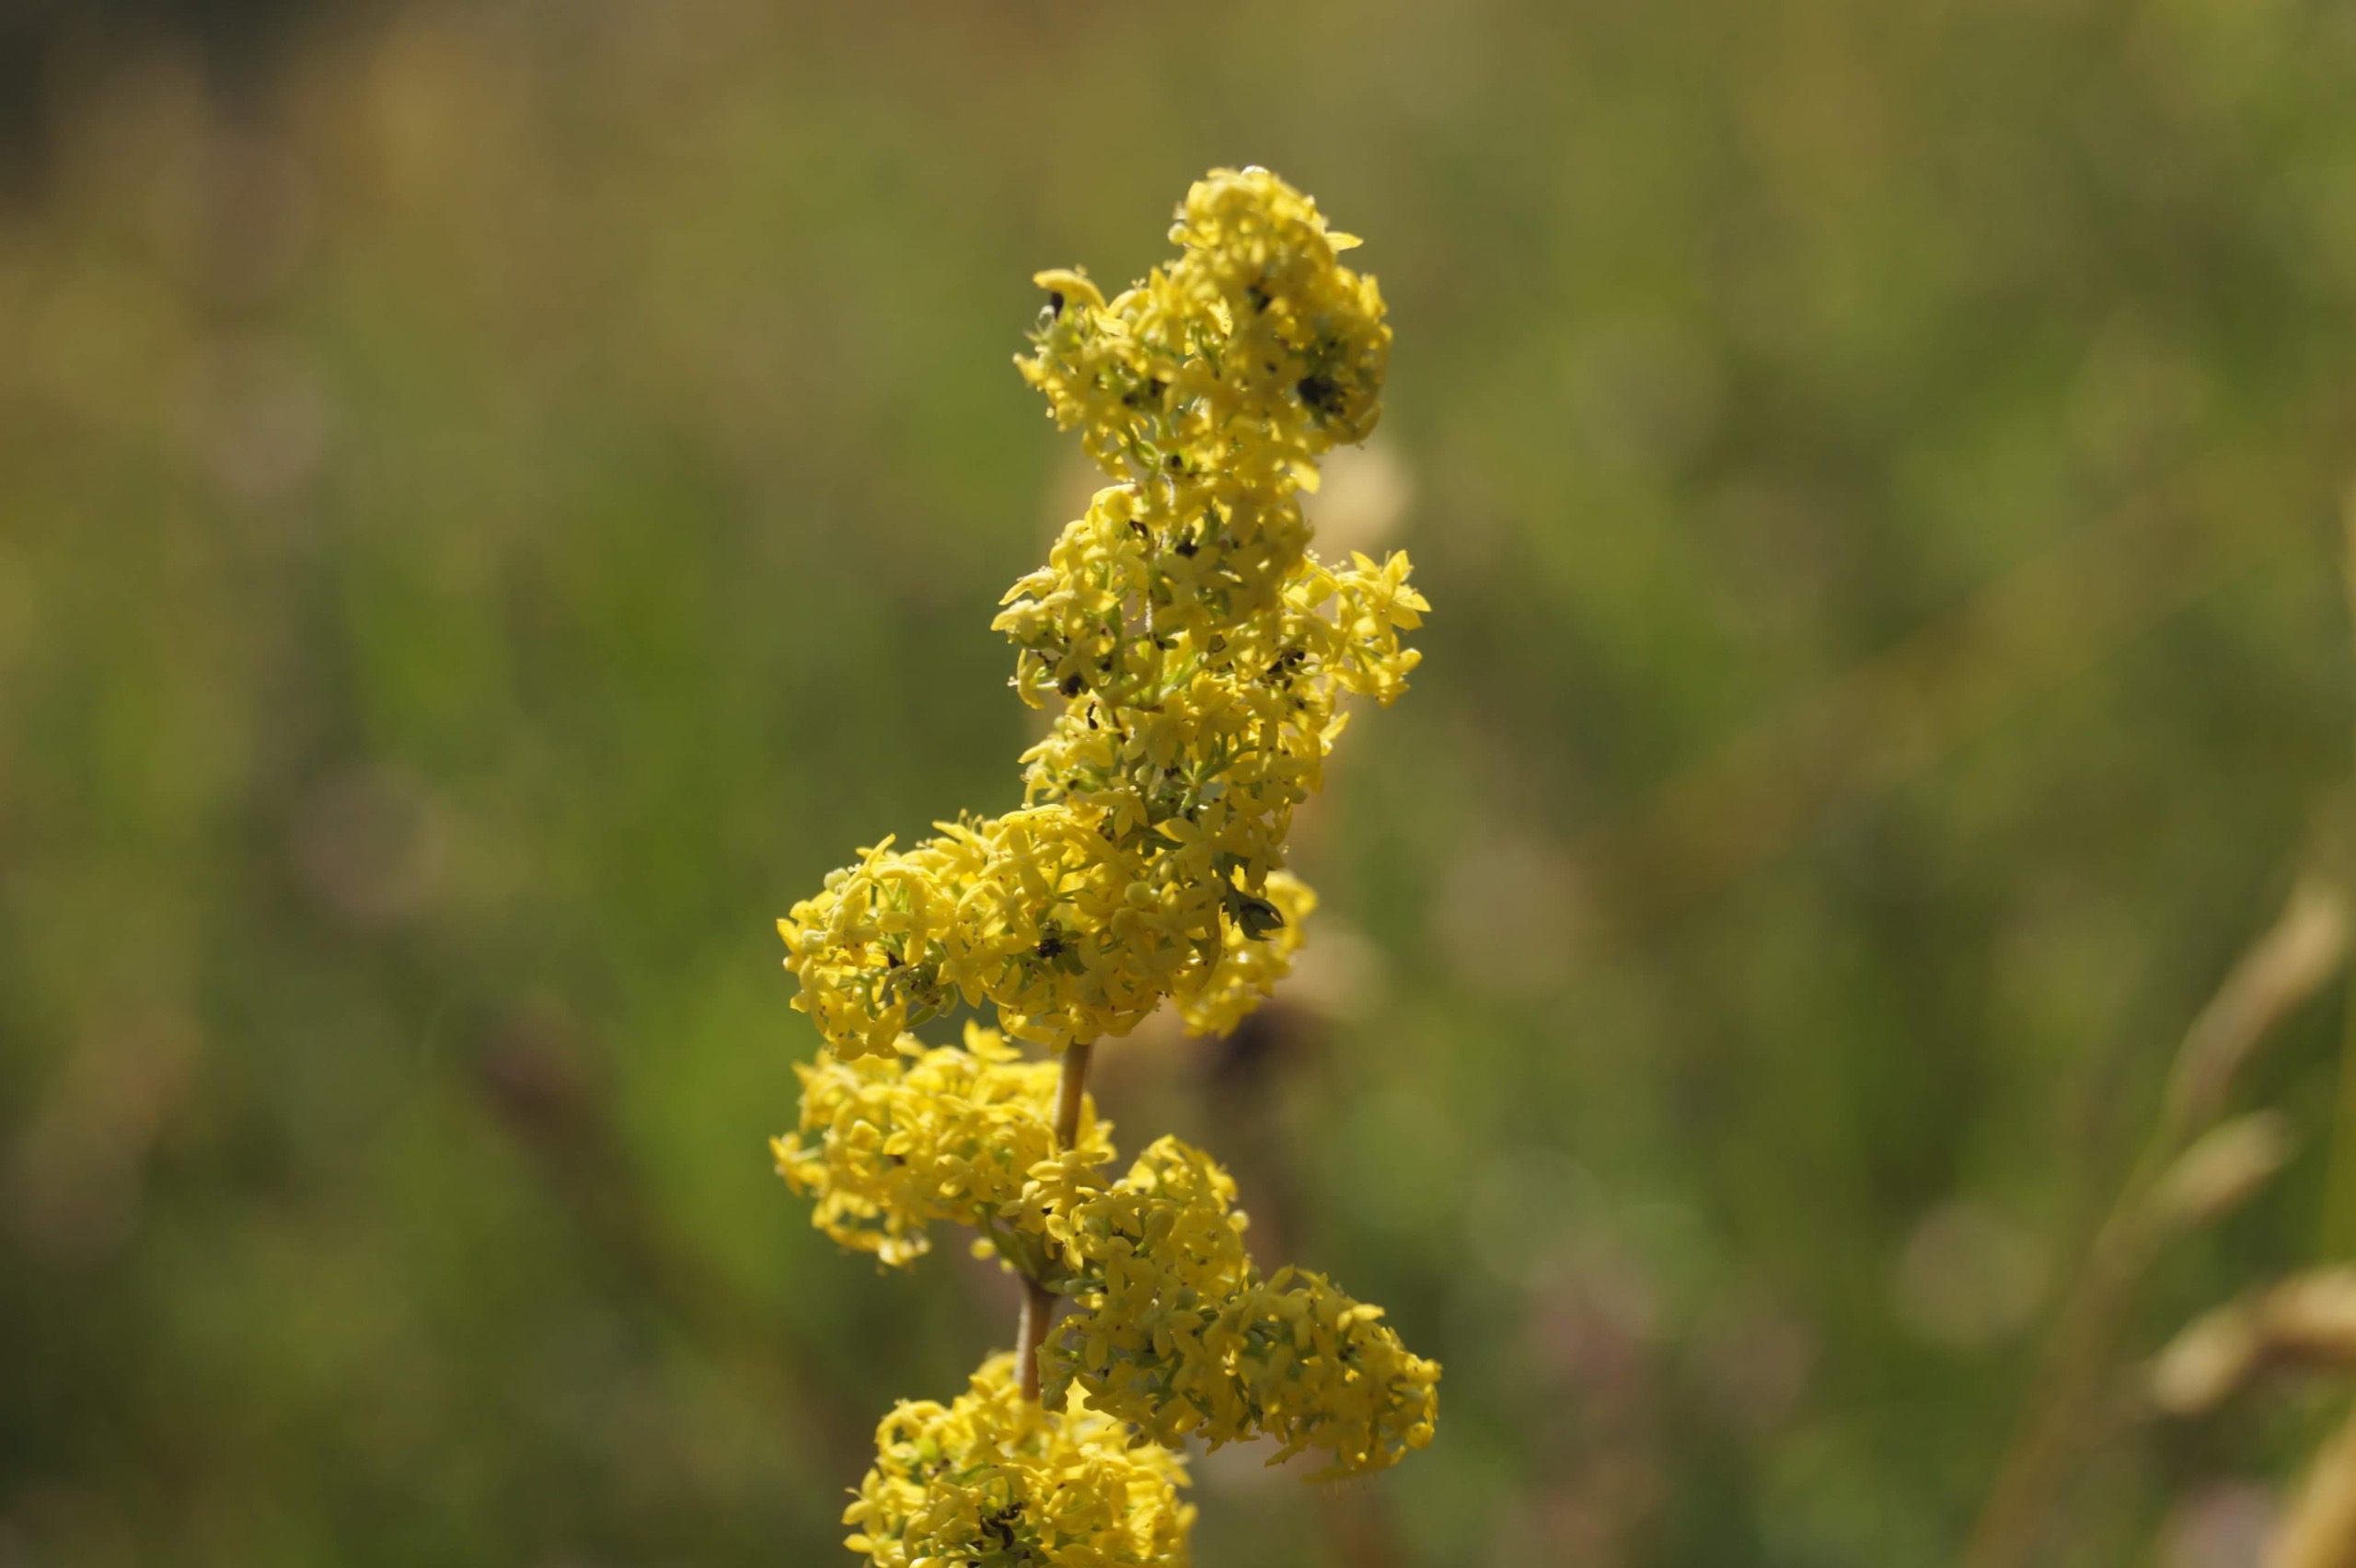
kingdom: Plantae
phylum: Tracheophyta
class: Magnoliopsida
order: Gentianales
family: Rubiaceae
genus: Galium
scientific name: Galium verum
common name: Gul snerre
